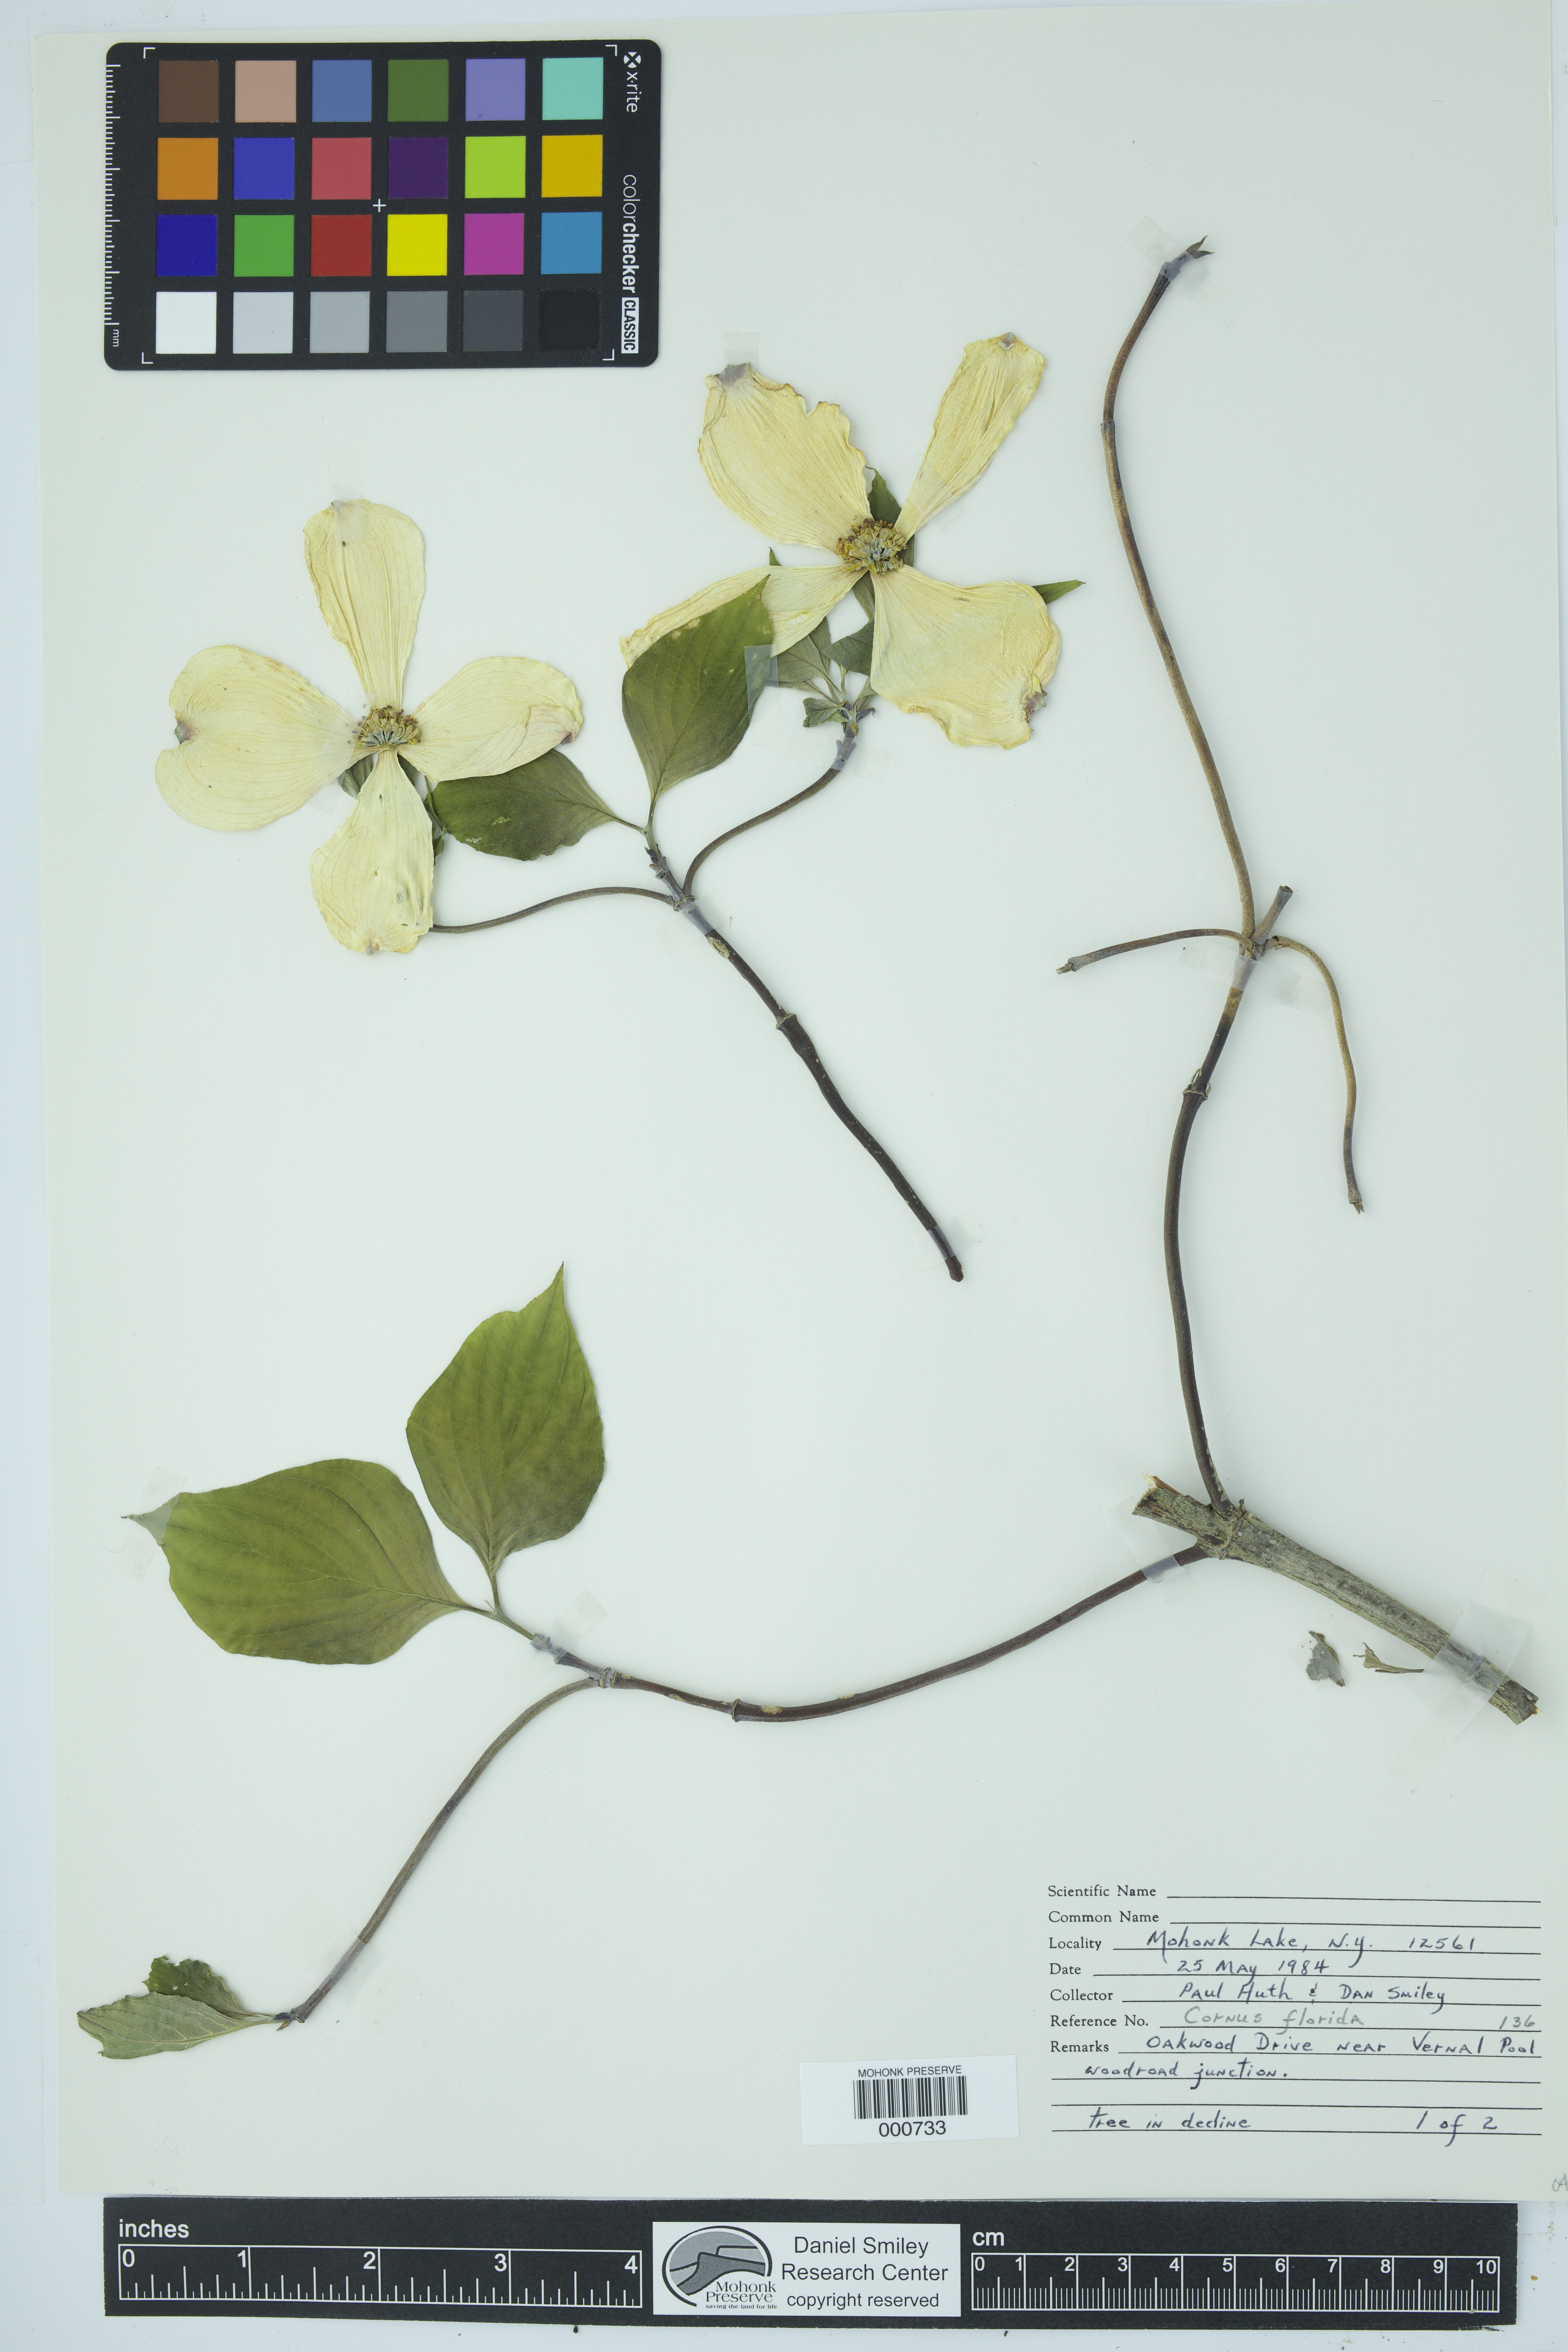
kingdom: Plantae
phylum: Tracheophyta
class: Magnoliopsida
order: Cornales
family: Cornaceae
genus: Cornus
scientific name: Cornus florida
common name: Flowering dogwood
